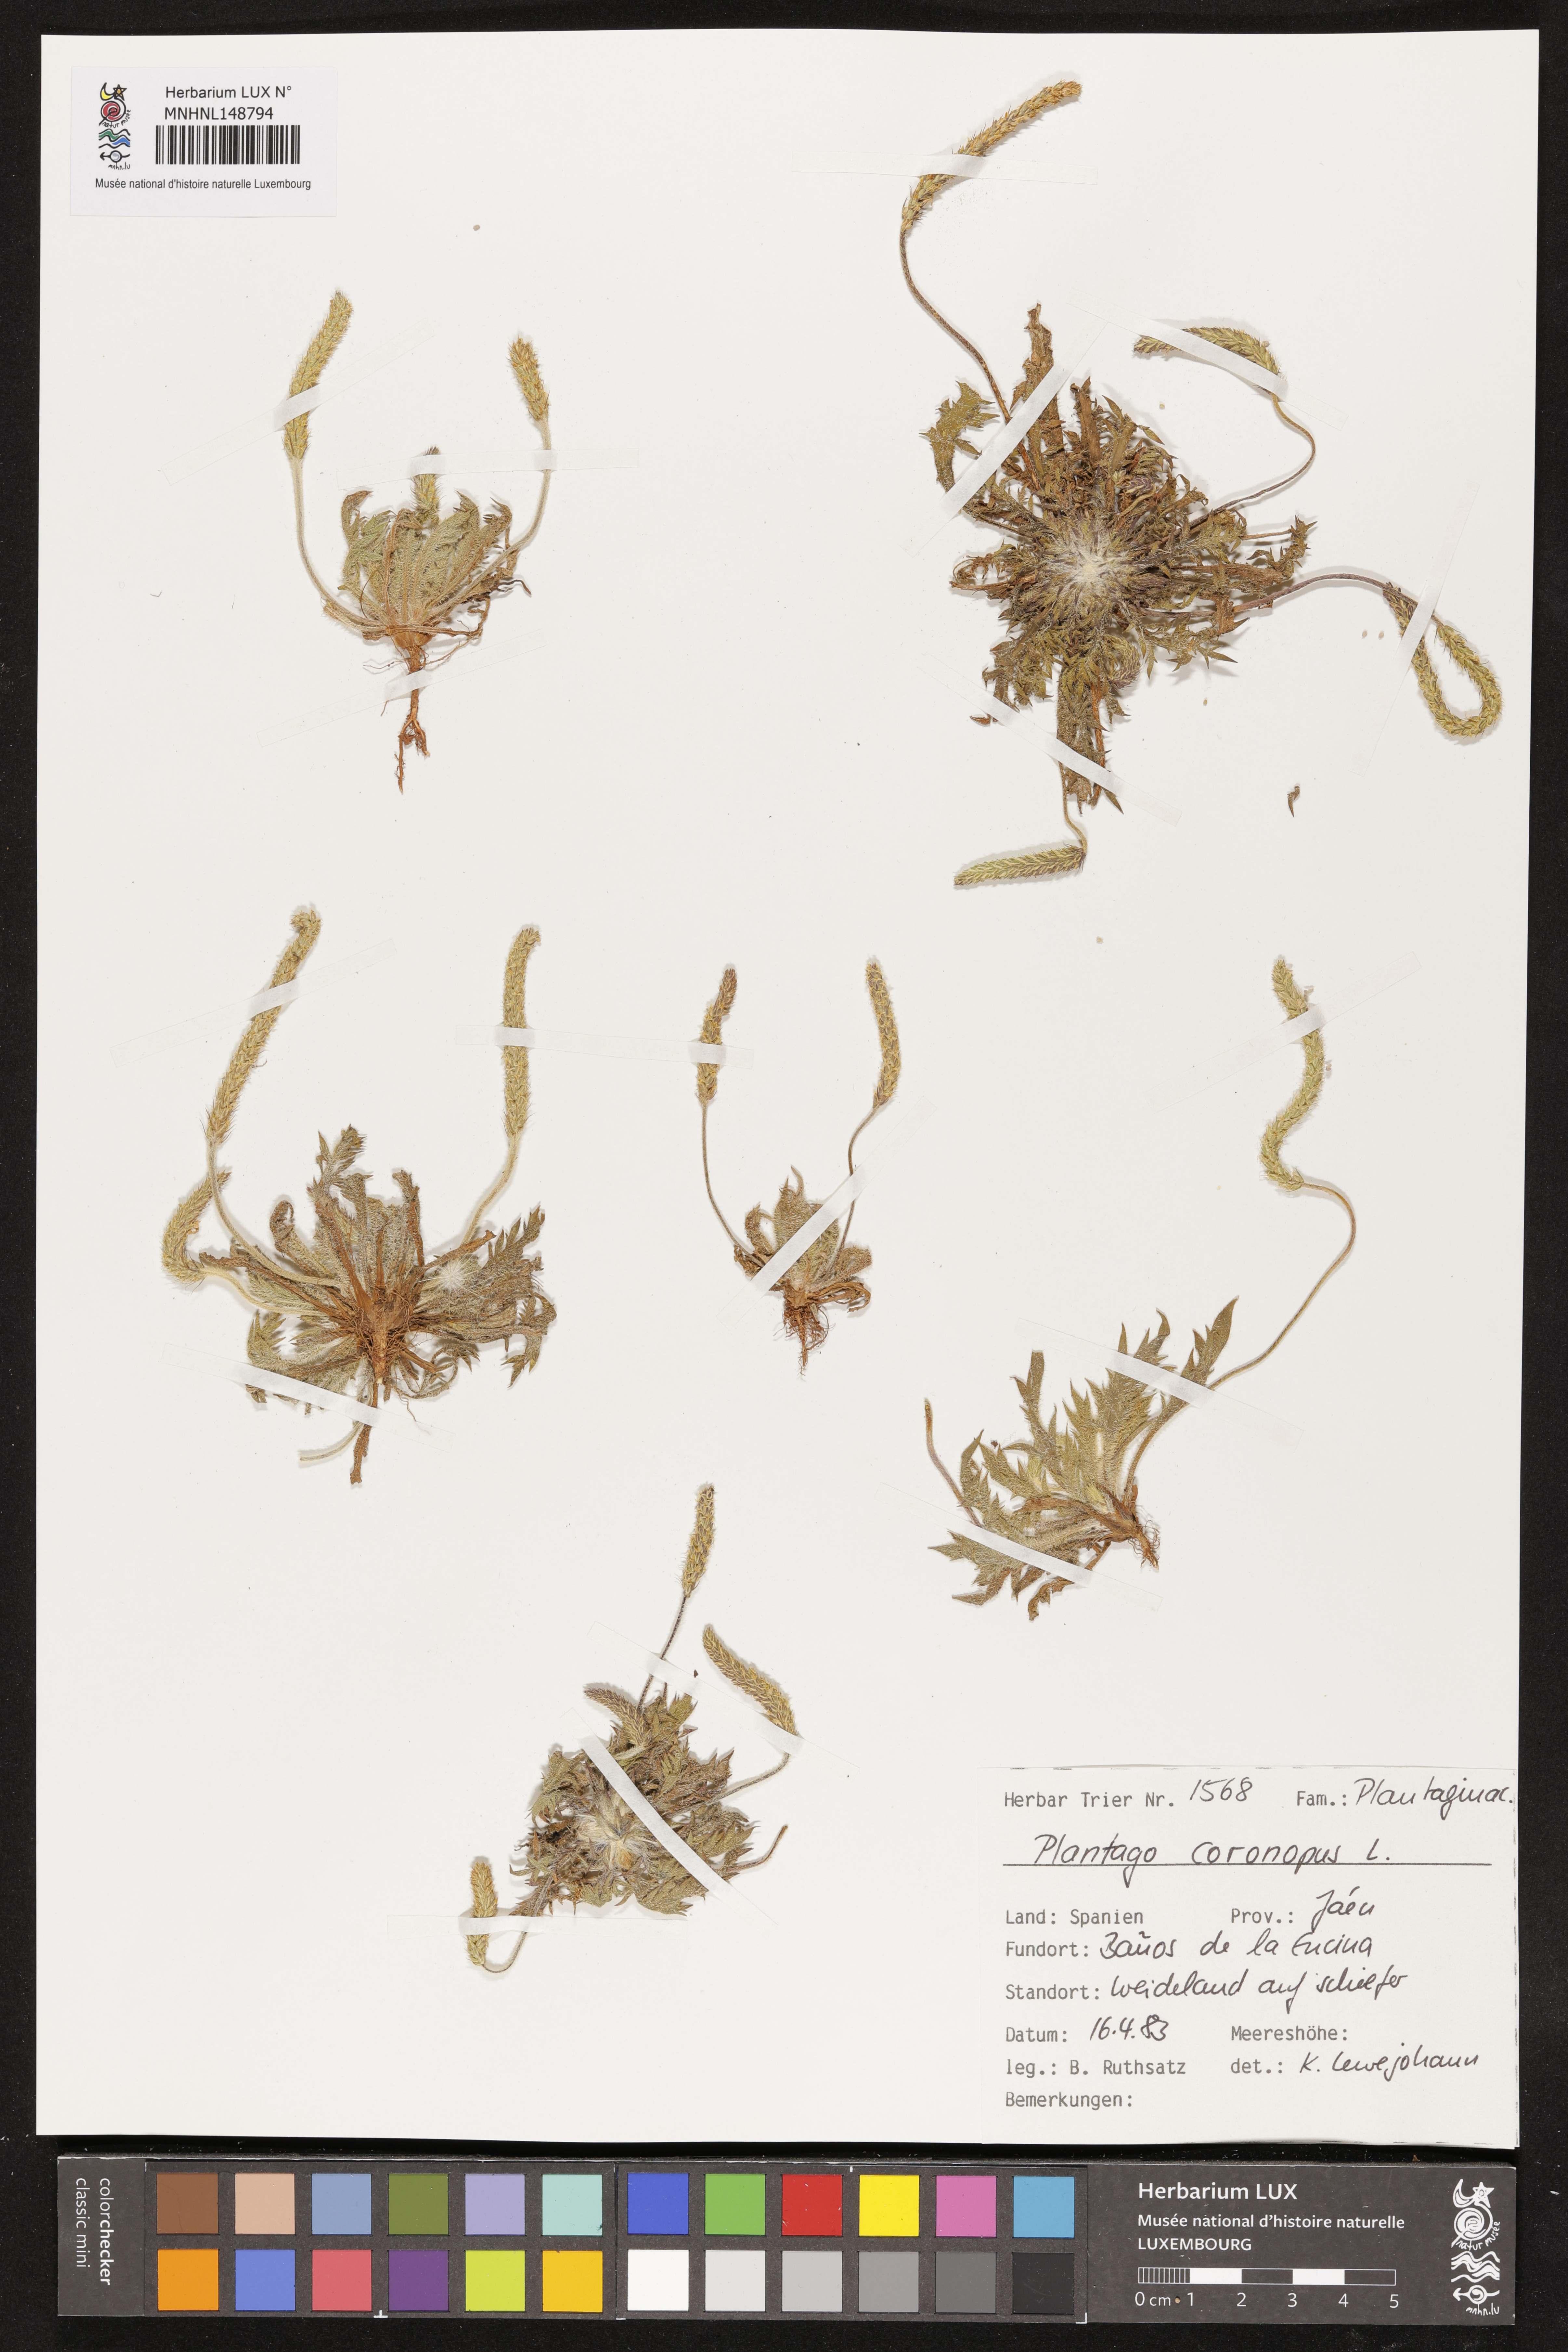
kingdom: Plantae
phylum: Tracheophyta
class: Magnoliopsida
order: Lamiales
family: Plantaginaceae
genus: Plantago
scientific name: Plantago coronopus
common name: Buck's-horn plantain
